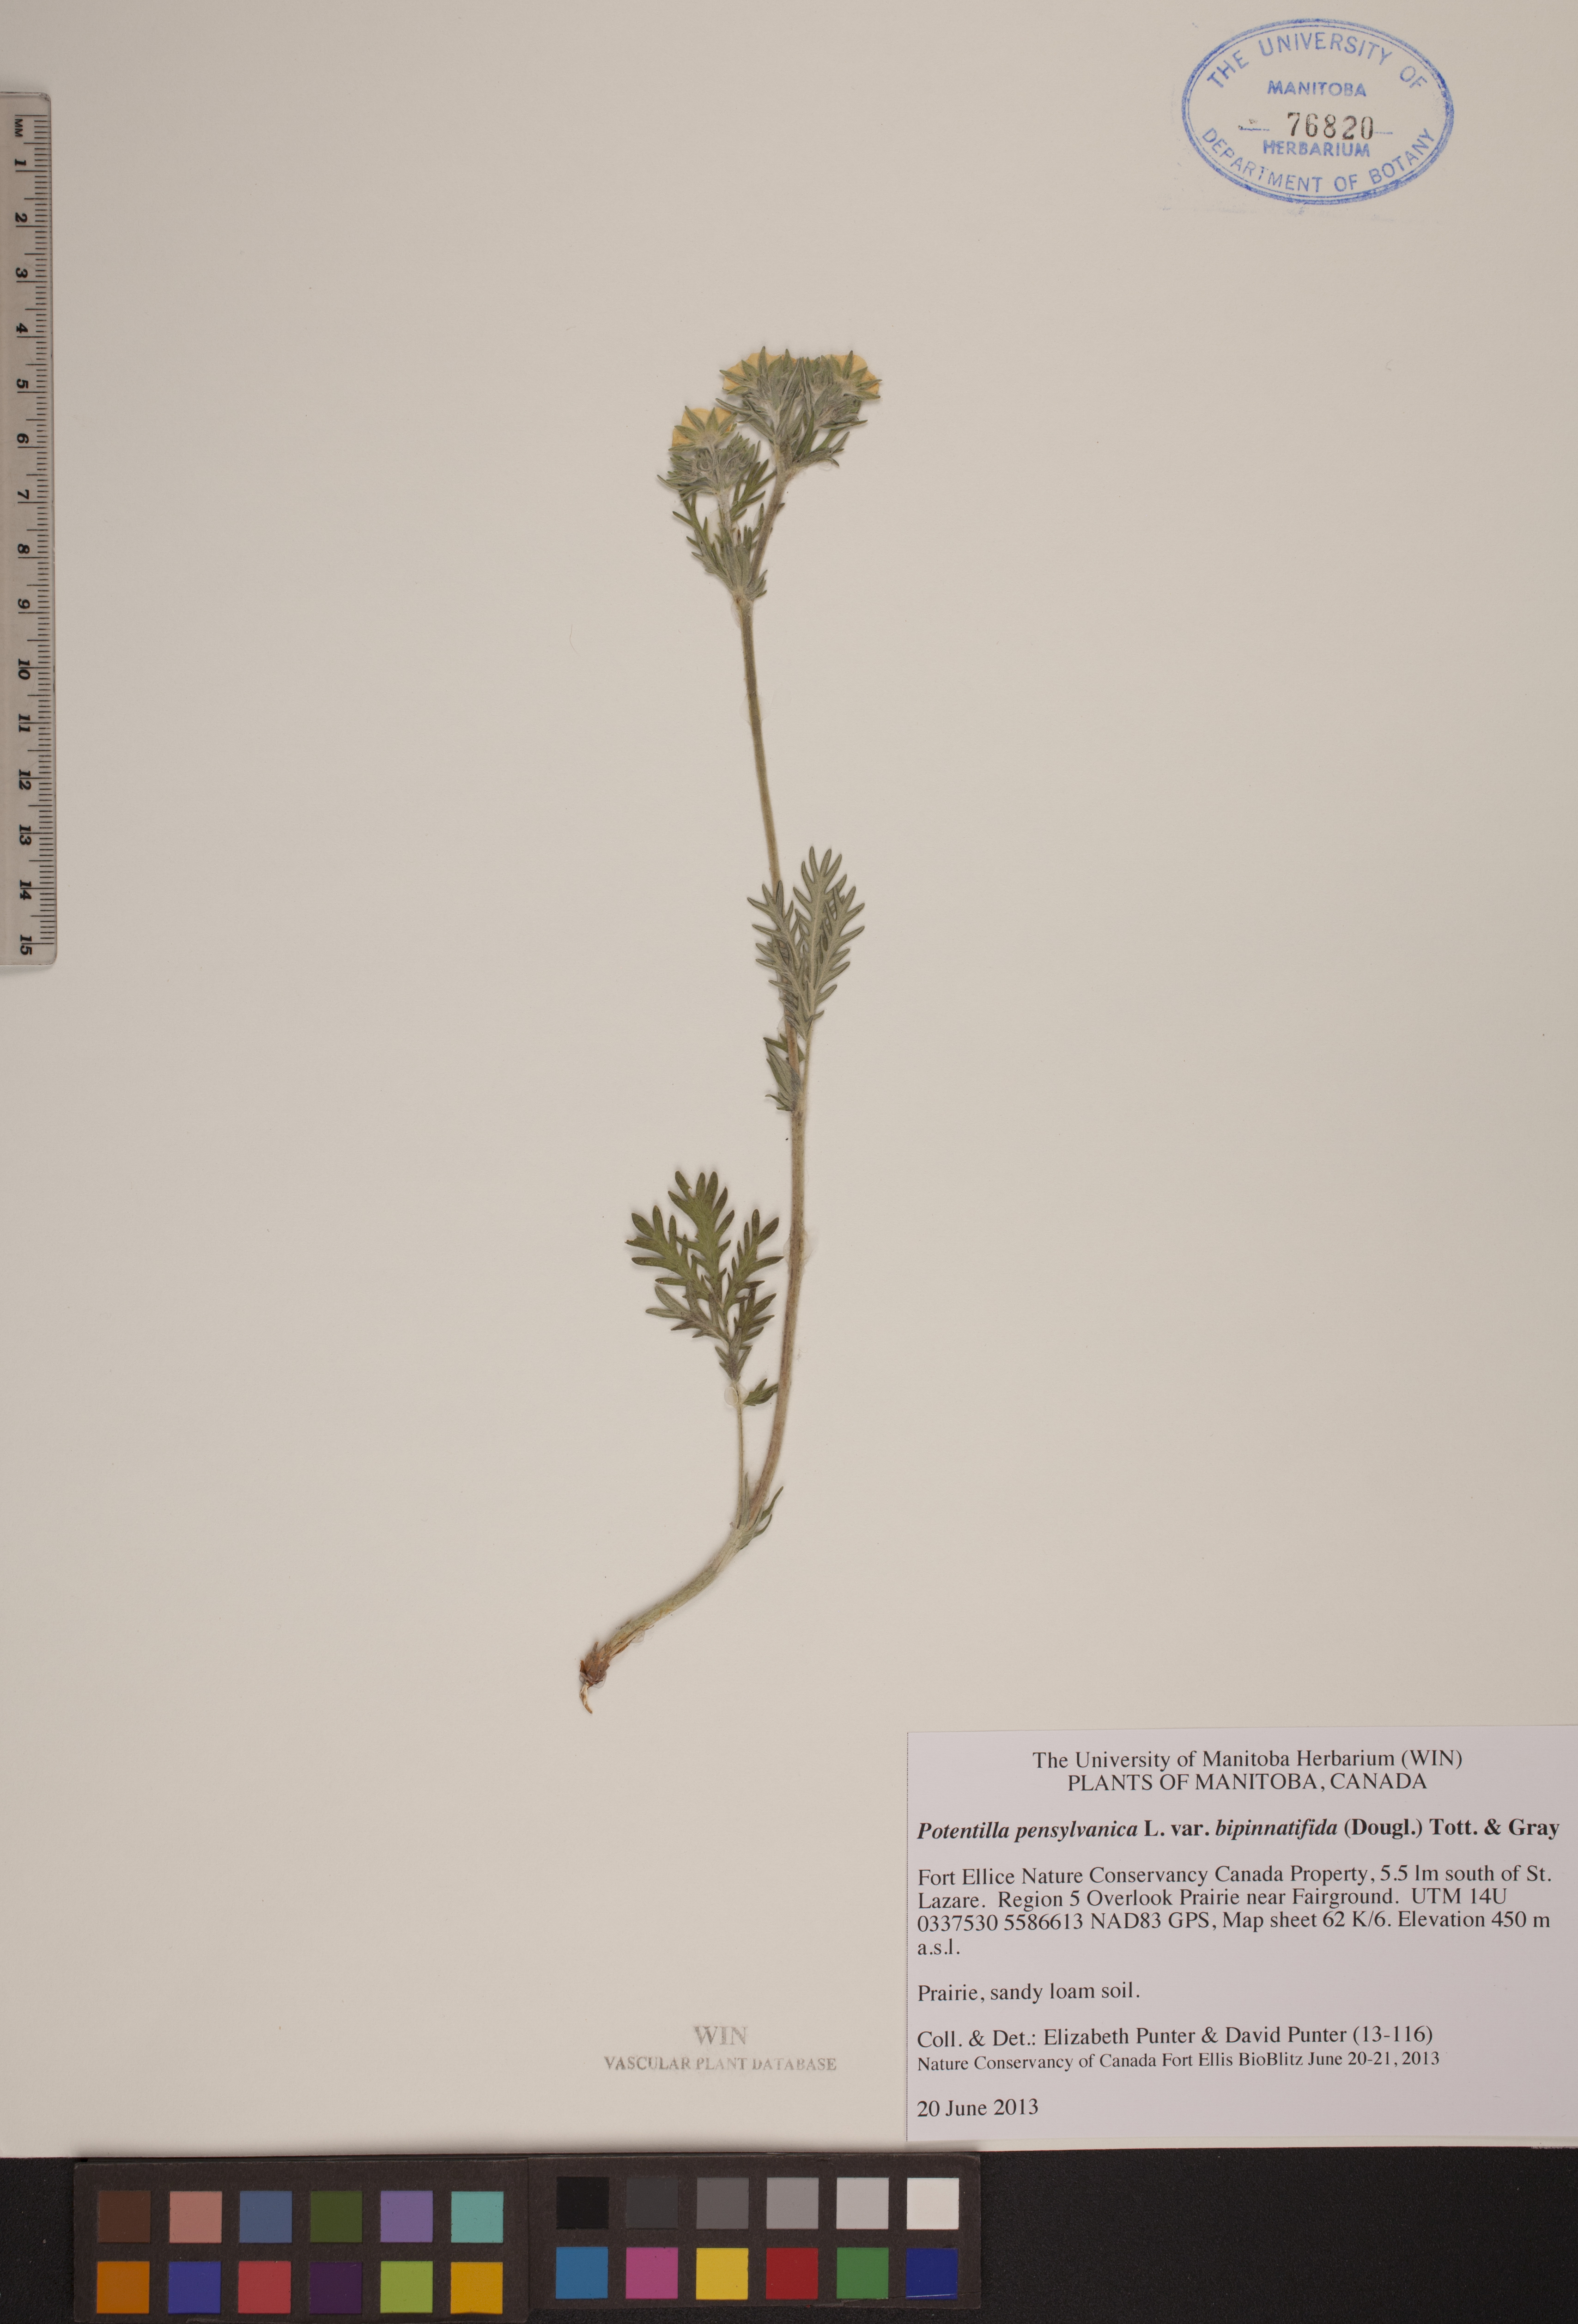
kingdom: Plantae
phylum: Tracheophyta
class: Magnoliopsida
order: Rosales
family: Rosaceae
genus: Potentilla
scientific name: Potentilla bipinnatifida
